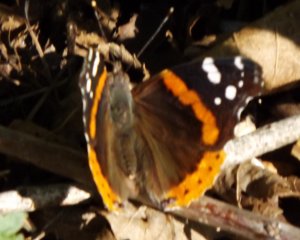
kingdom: Animalia
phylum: Arthropoda
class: Insecta
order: Lepidoptera
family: Nymphalidae
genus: Vanessa
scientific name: Vanessa atalanta
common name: Red Admiral
